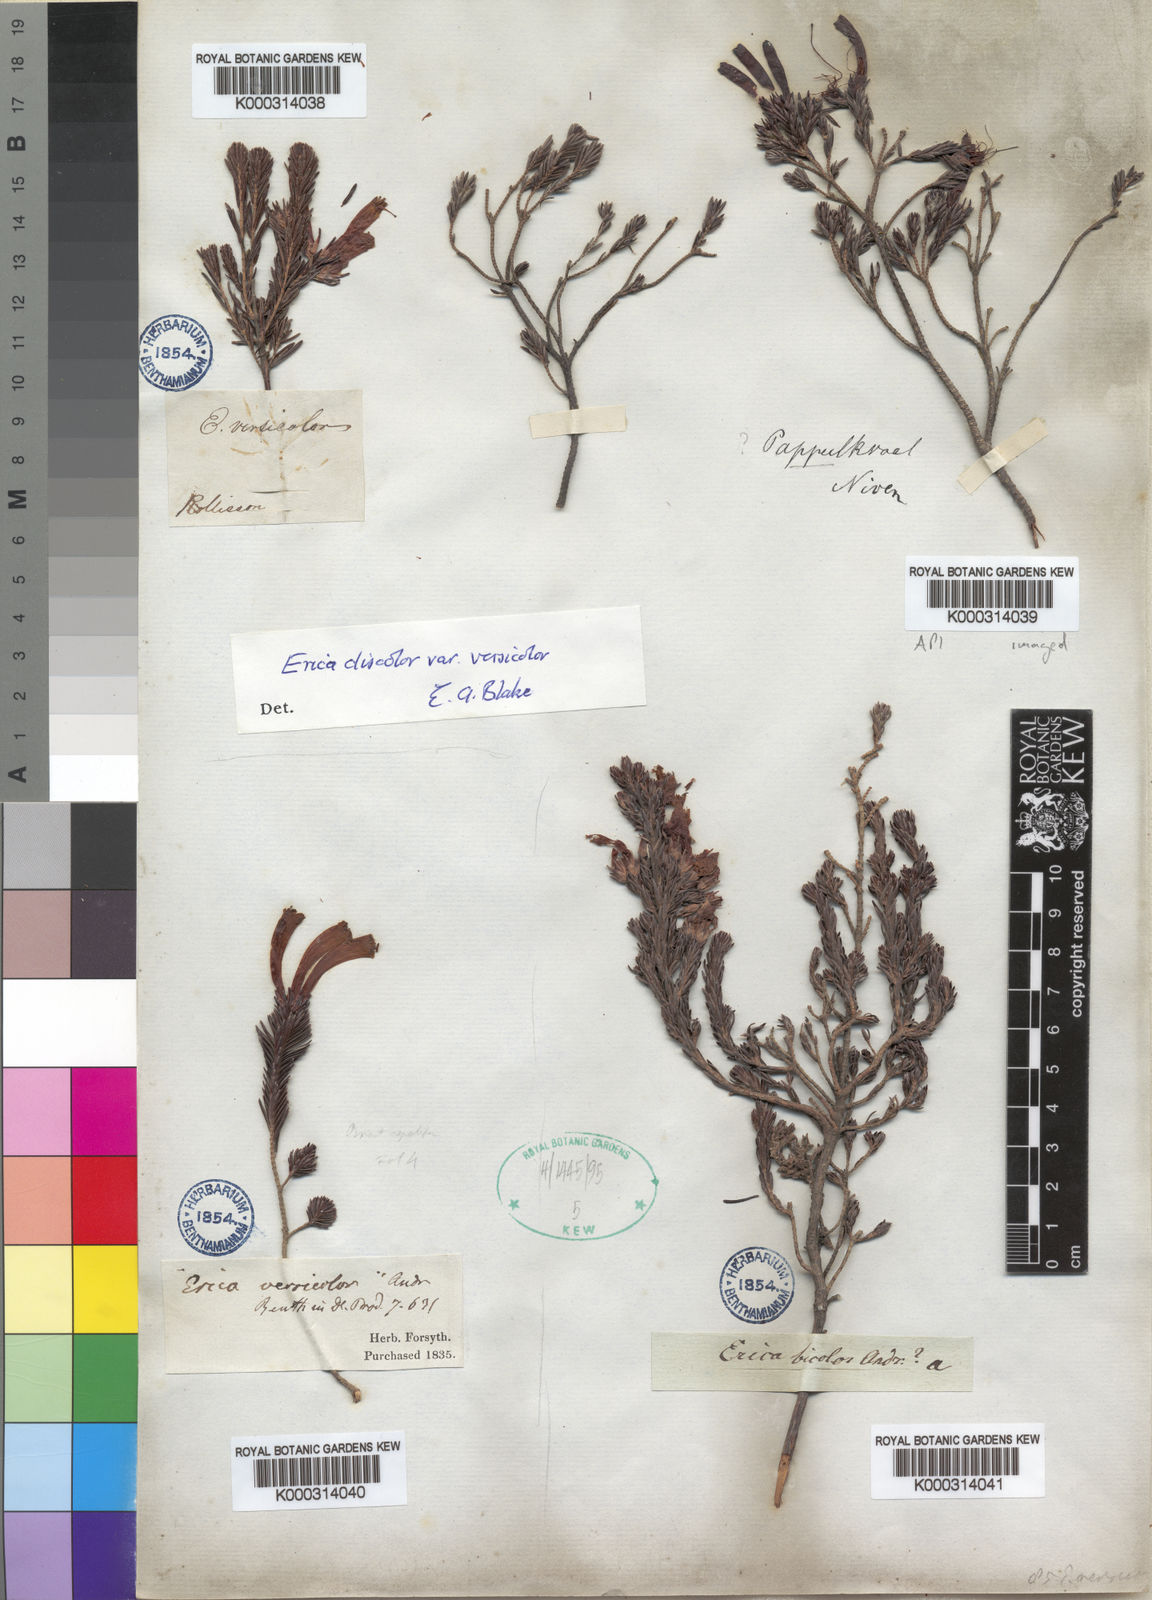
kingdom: Plantae
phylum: Tracheophyta
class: Magnoliopsida
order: Ericales
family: Ericaceae
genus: Erica
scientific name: Erica versicolor
